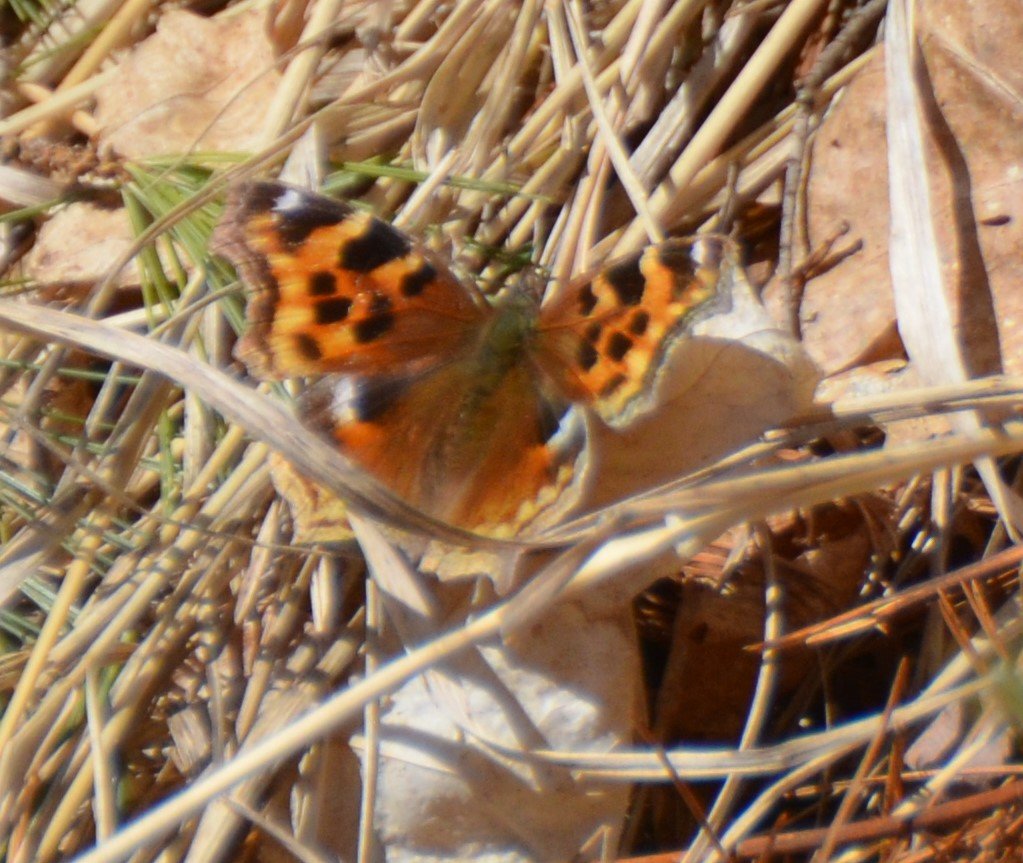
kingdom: Animalia
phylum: Arthropoda
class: Insecta
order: Lepidoptera
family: Nymphalidae
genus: Polygonia
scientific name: Polygonia vaualbum
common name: Compton Tortoiseshell
